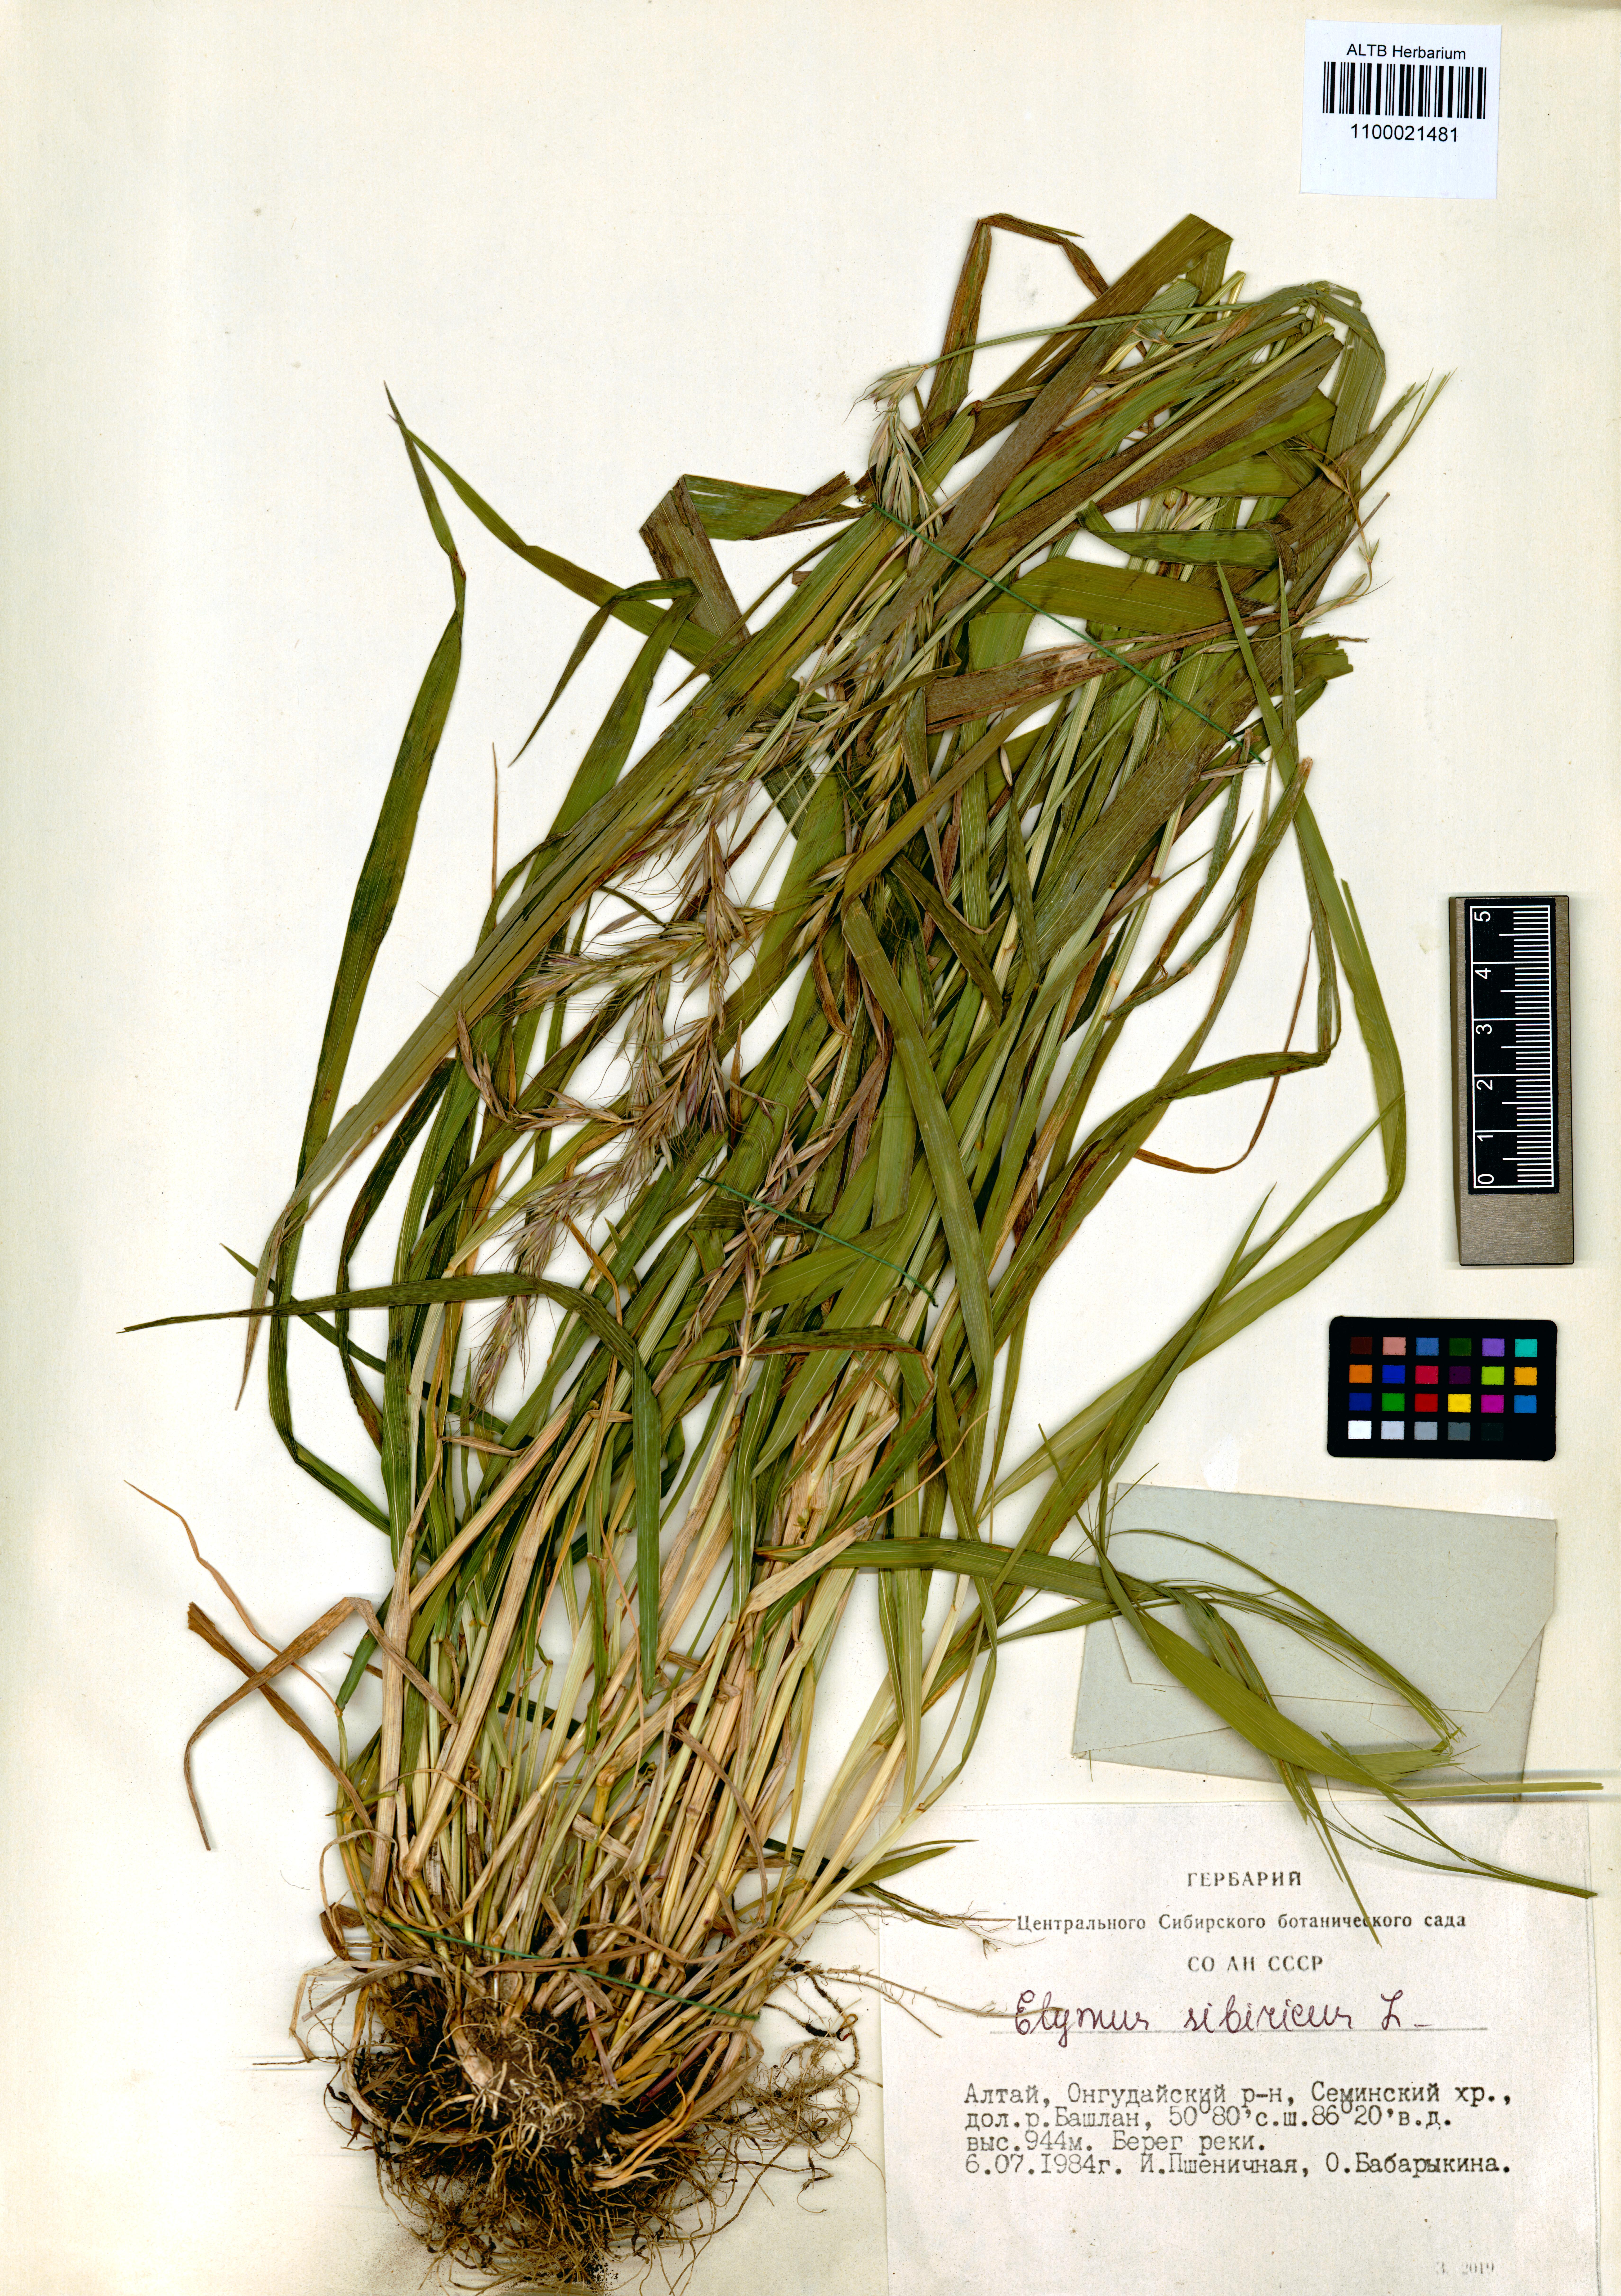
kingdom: Plantae
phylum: Tracheophyta
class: Liliopsida
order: Poales
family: Poaceae
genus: Elymus
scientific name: Elymus sibiricus
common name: Siberian wildrye
